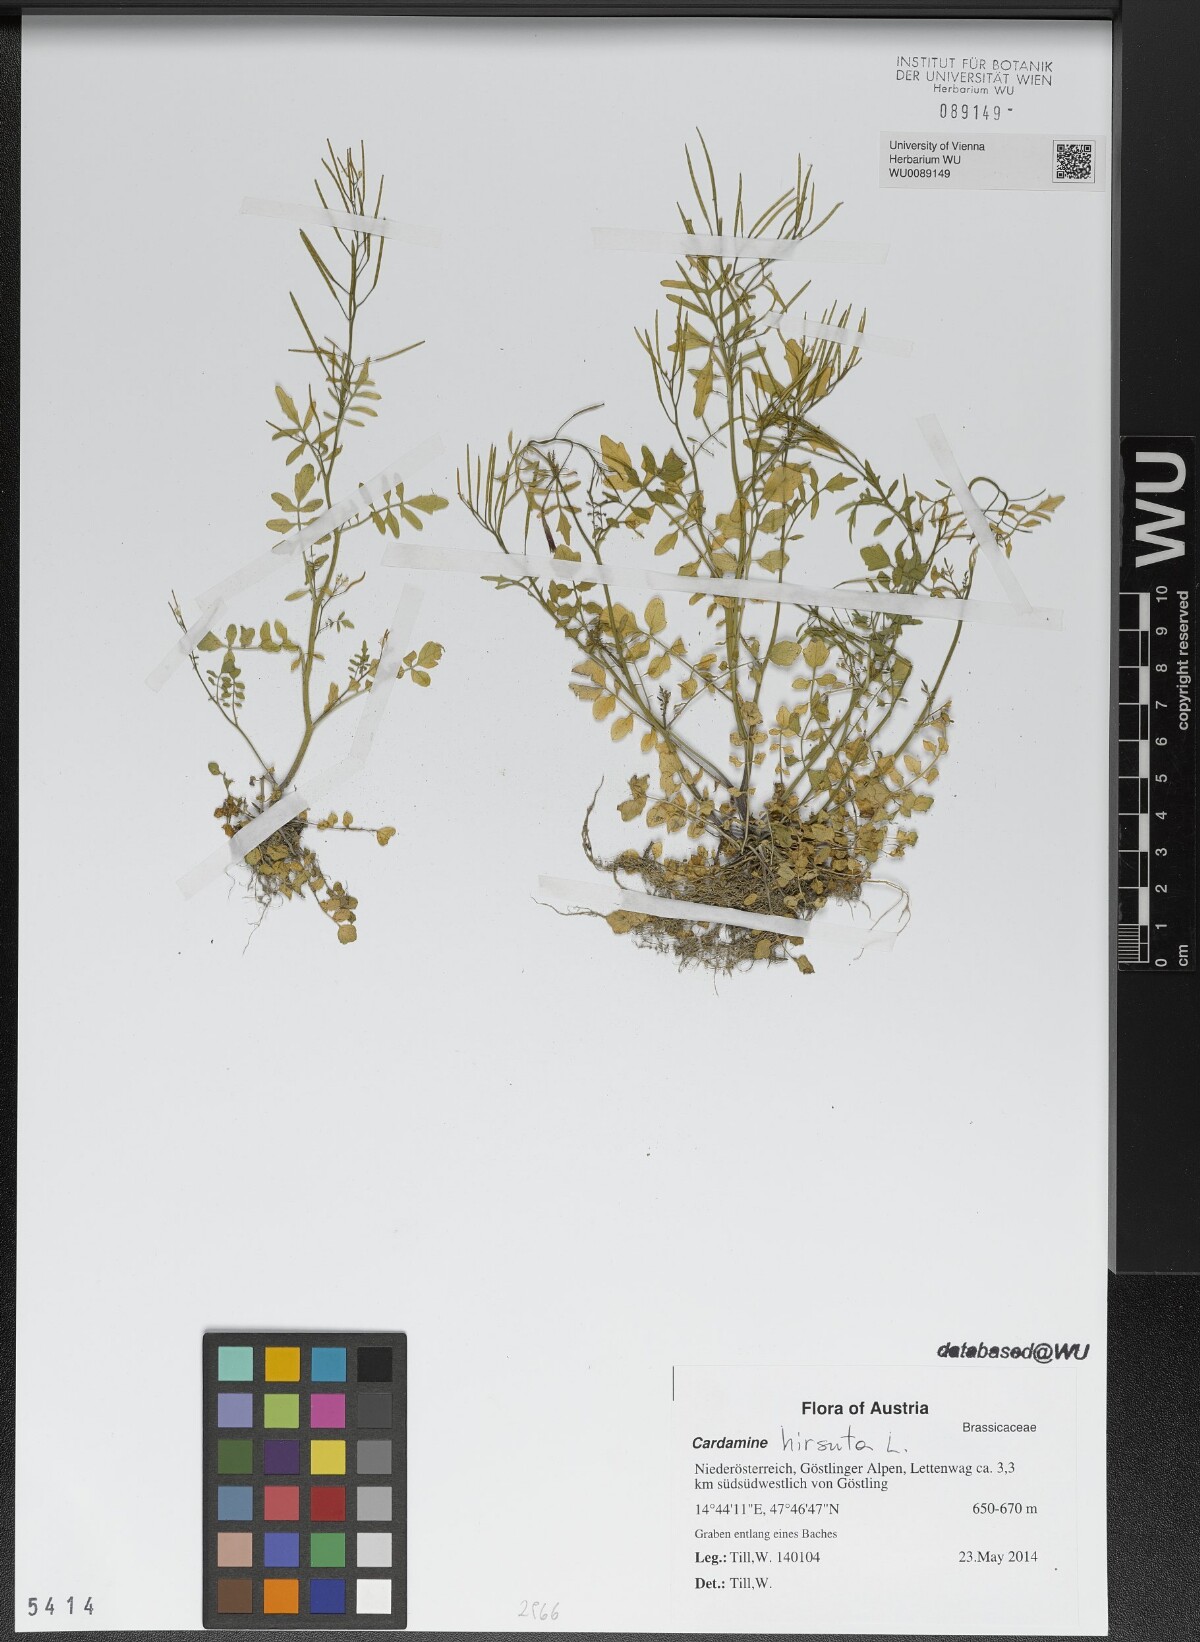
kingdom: Plantae
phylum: Tracheophyta
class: Magnoliopsida
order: Brassicales
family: Brassicaceae
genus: Cardamine
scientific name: Cardamine hirsuta
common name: Hairy bittercress
